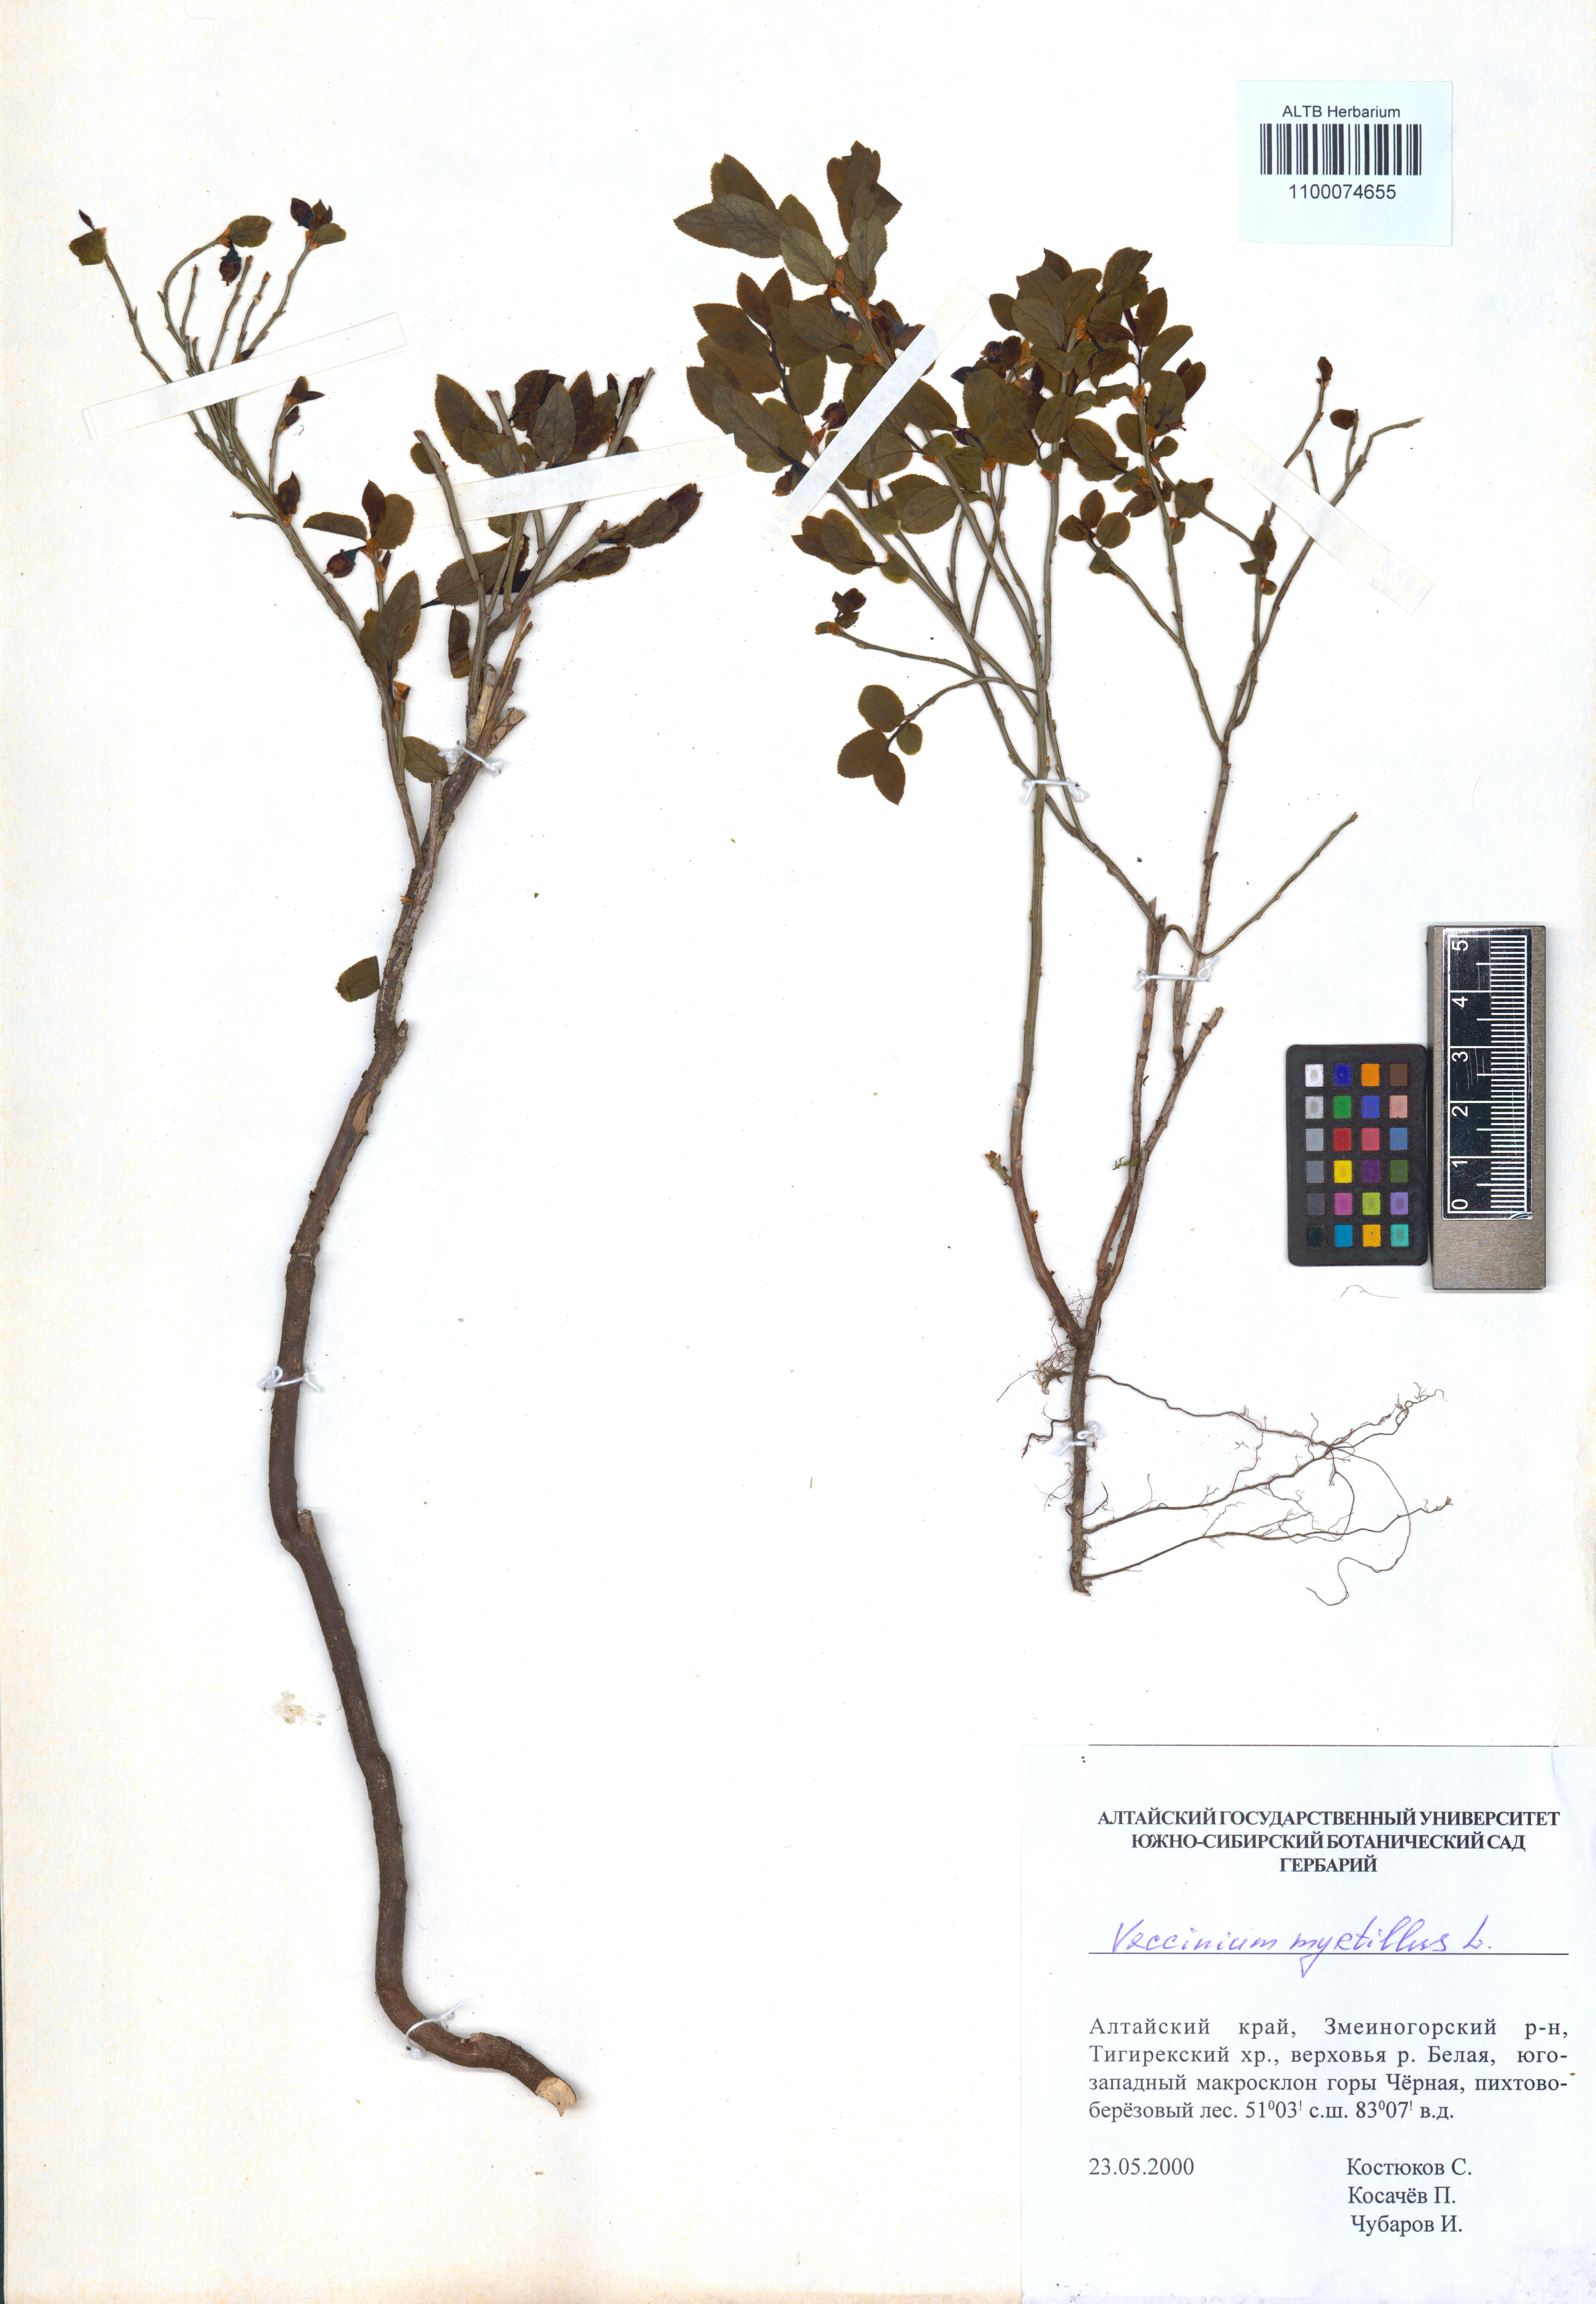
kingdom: Plantae
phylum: Tracheophyta
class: Magnoliopsida
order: Ericales
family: Ericaceae
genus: Vaccinium
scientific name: Vaccinium myrtillus
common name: Bilberry
